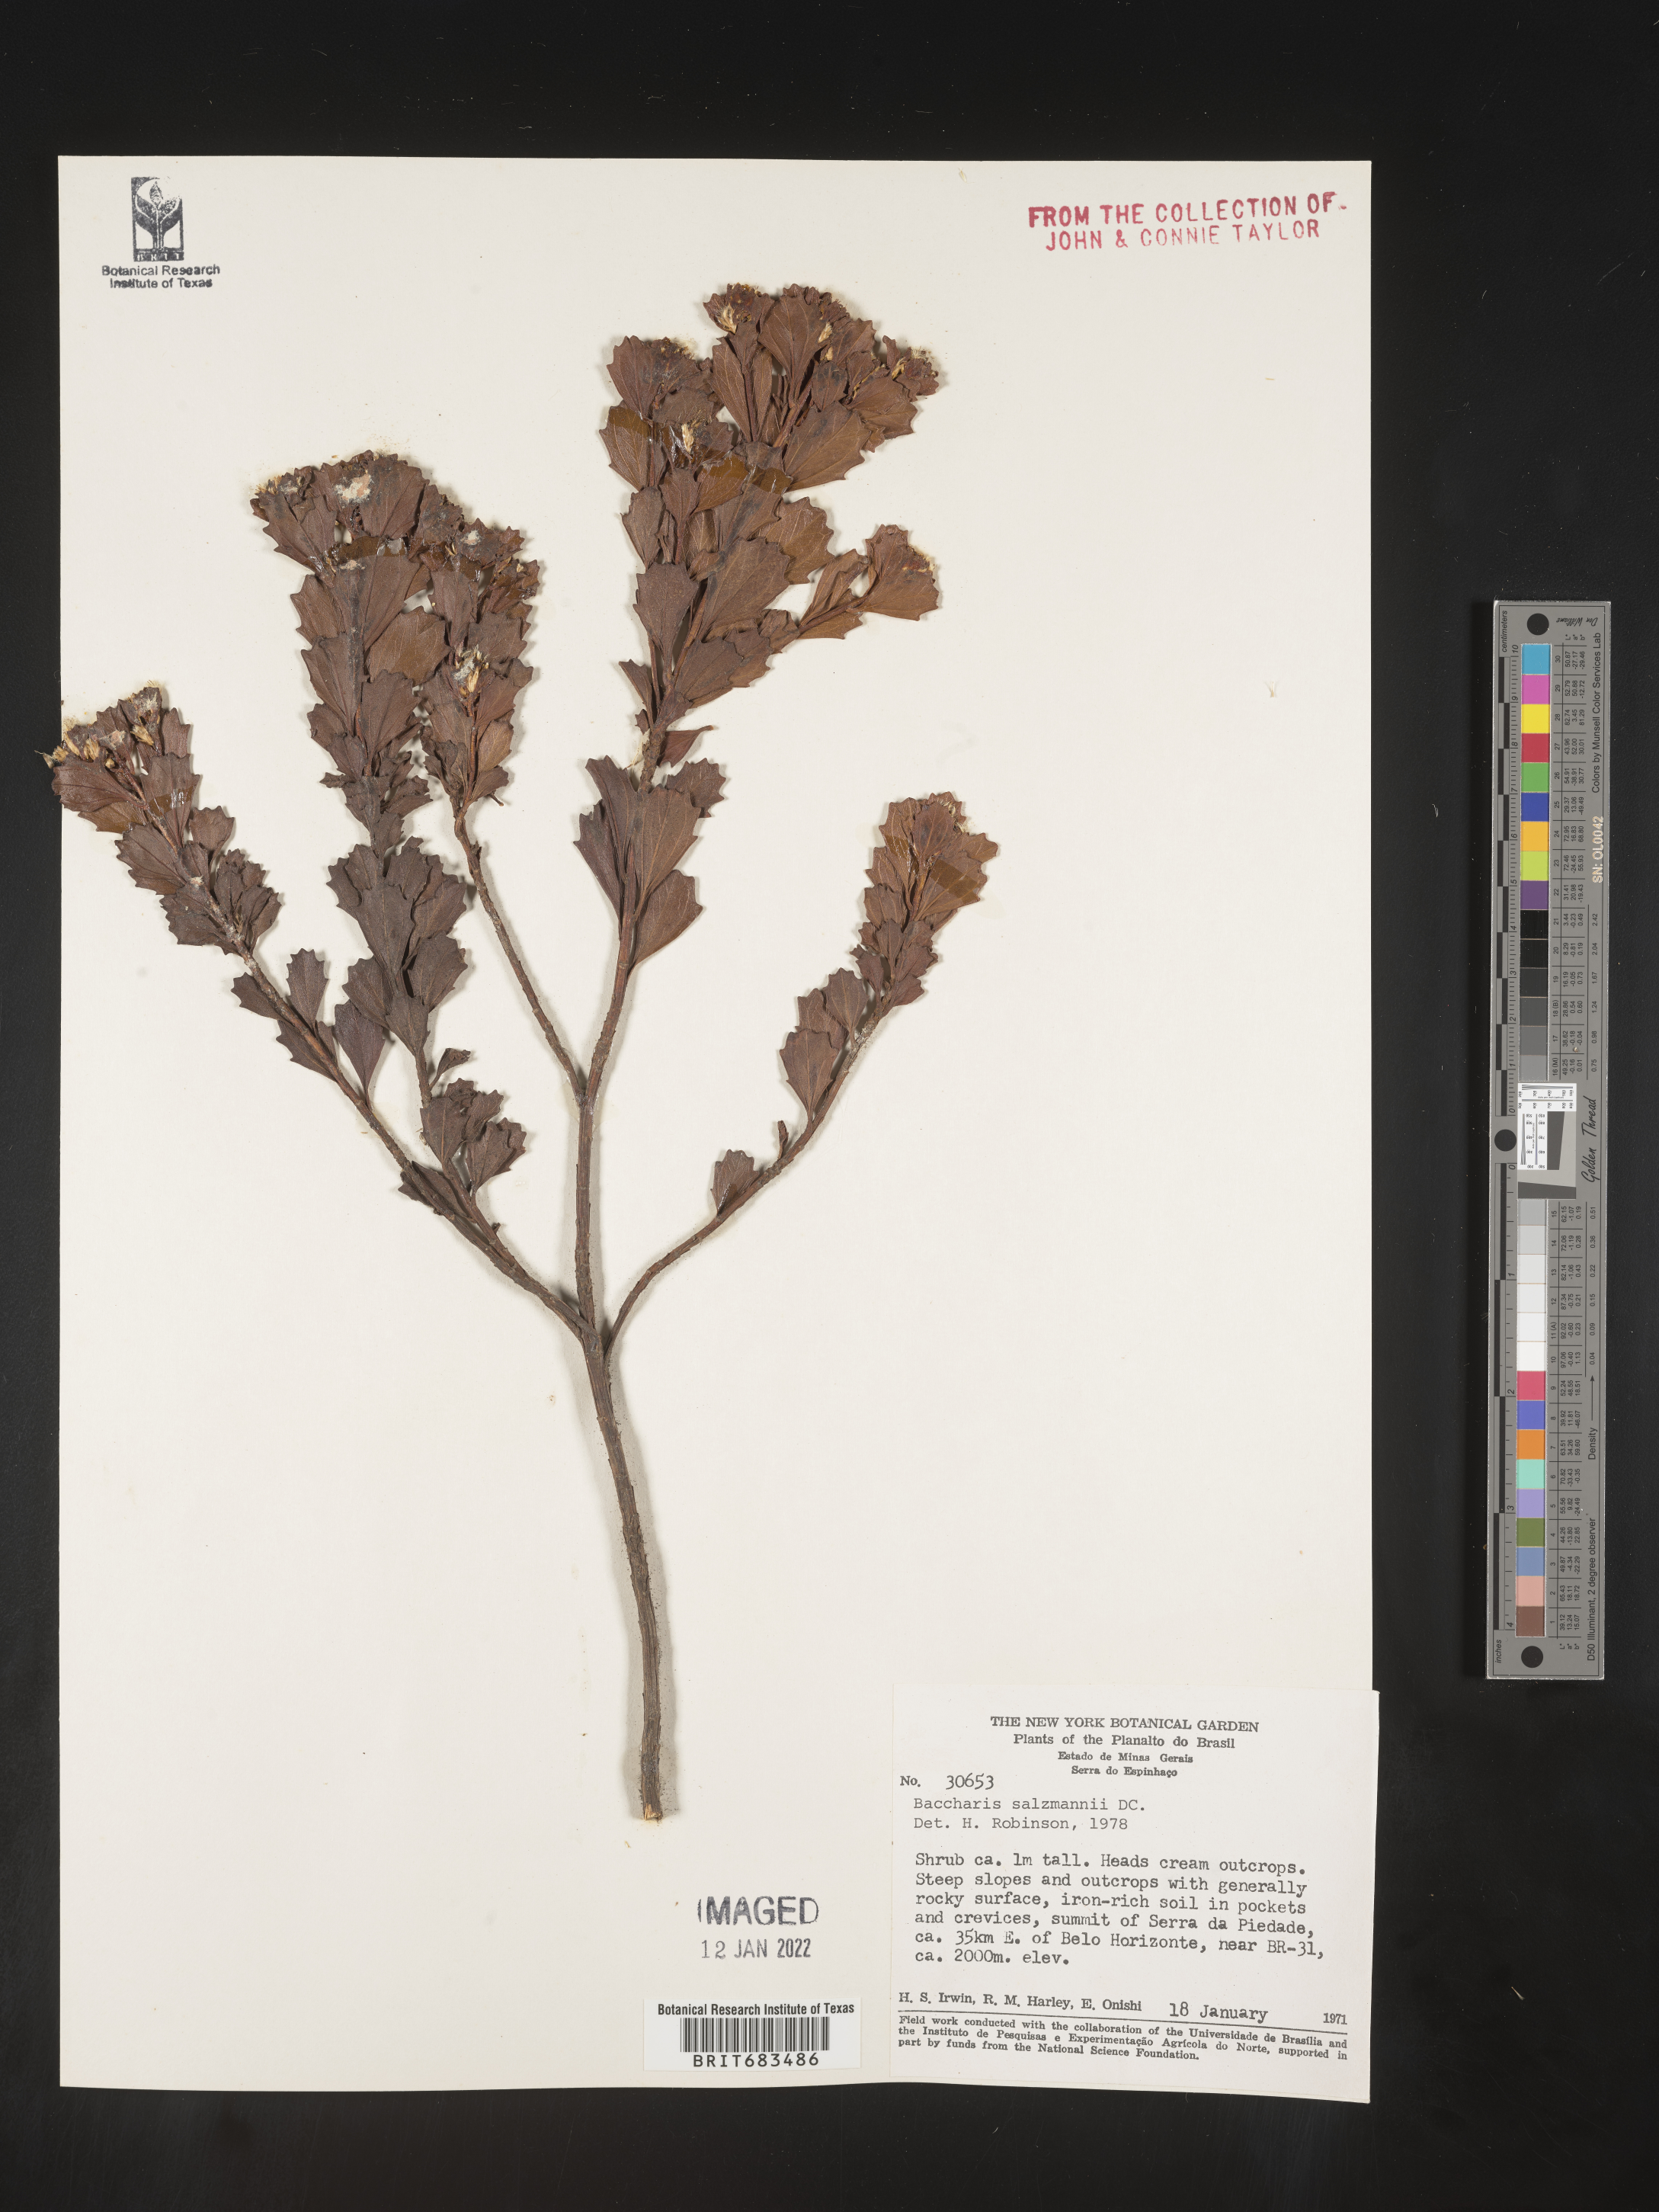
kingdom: Plantae
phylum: Tracheophyta
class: Magnoliopsida
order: Asterales
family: Asteraceae
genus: Baccharis
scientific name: Baccharis
